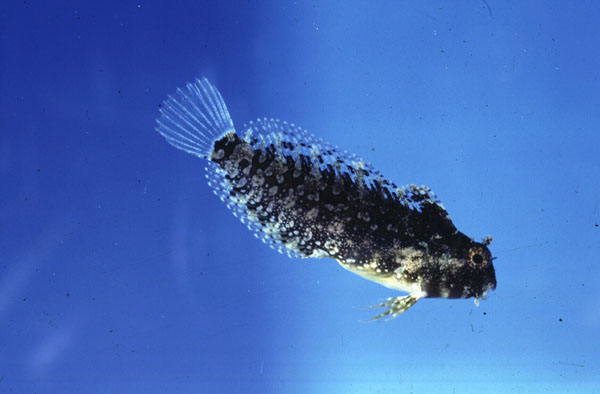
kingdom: Animalia
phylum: Chordata
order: Perciformes
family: Blenniidae
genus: Petroscirtes
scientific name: Petroscirtes mitratus
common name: Floral blenny
